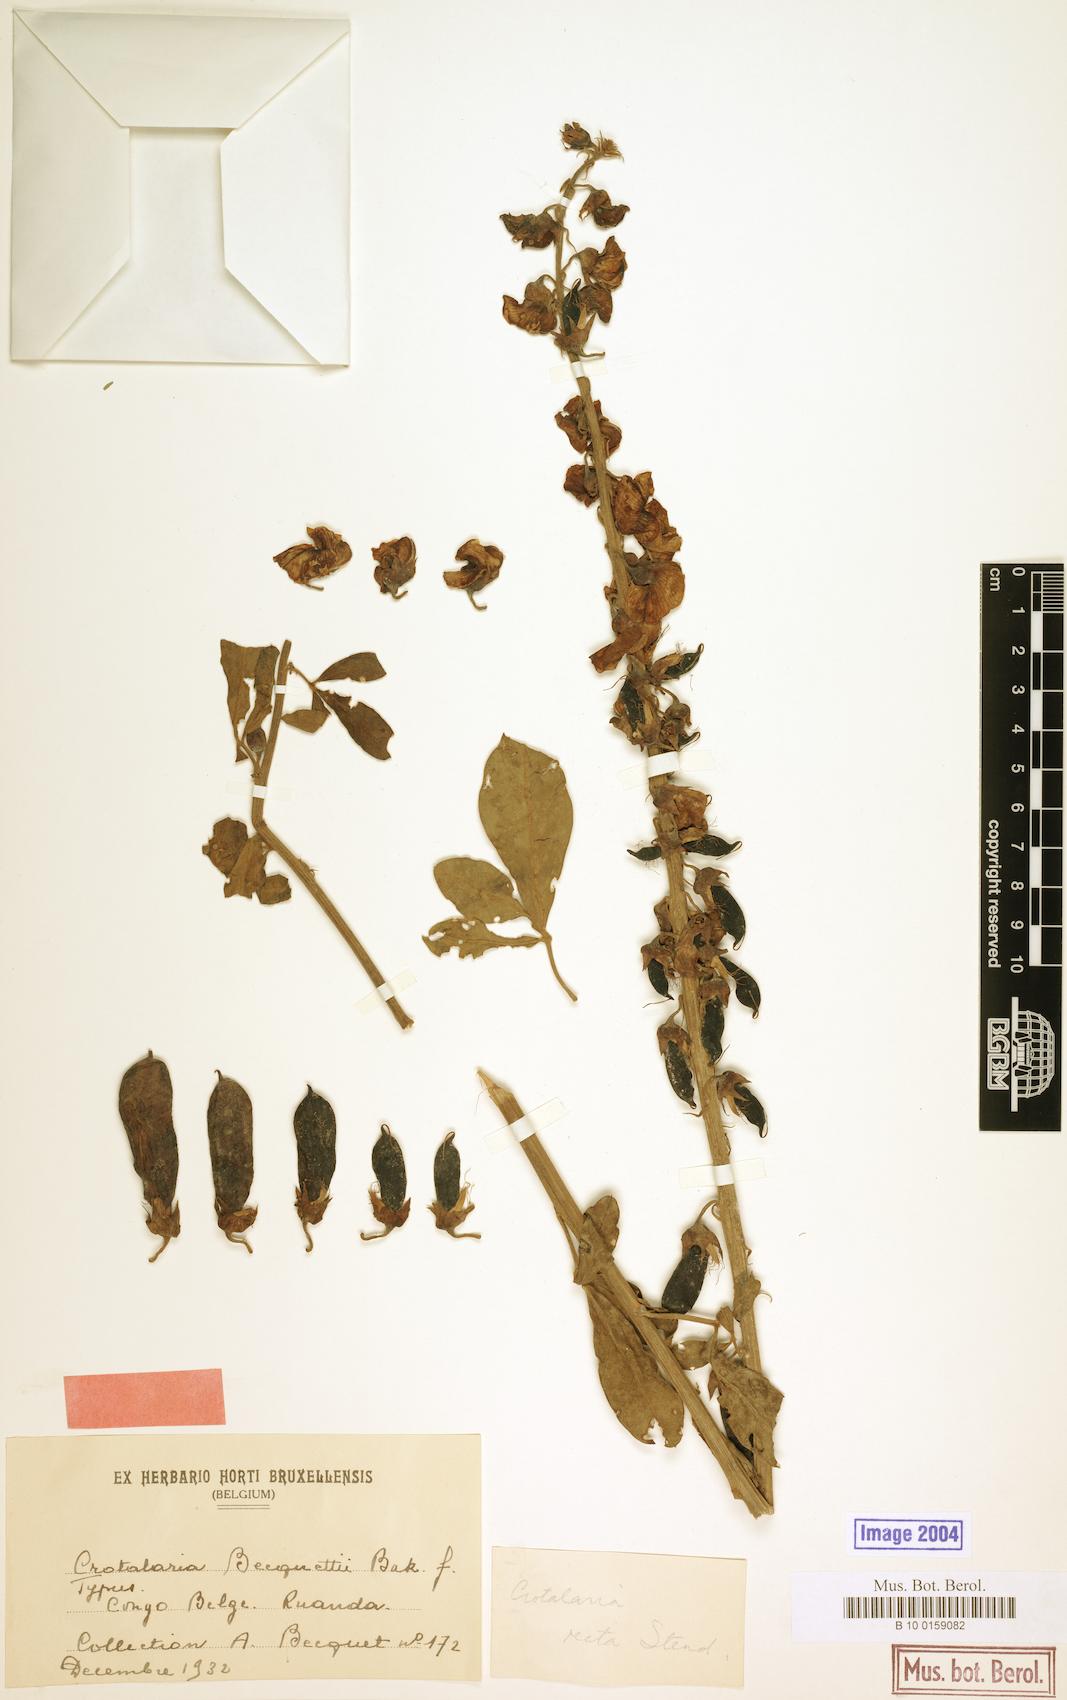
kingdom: Plantae
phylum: Tracheophyta
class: Magnoliopsida
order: Fabales
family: Fabaceae
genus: Crotalaria
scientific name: Crotalaria becquetii ex
